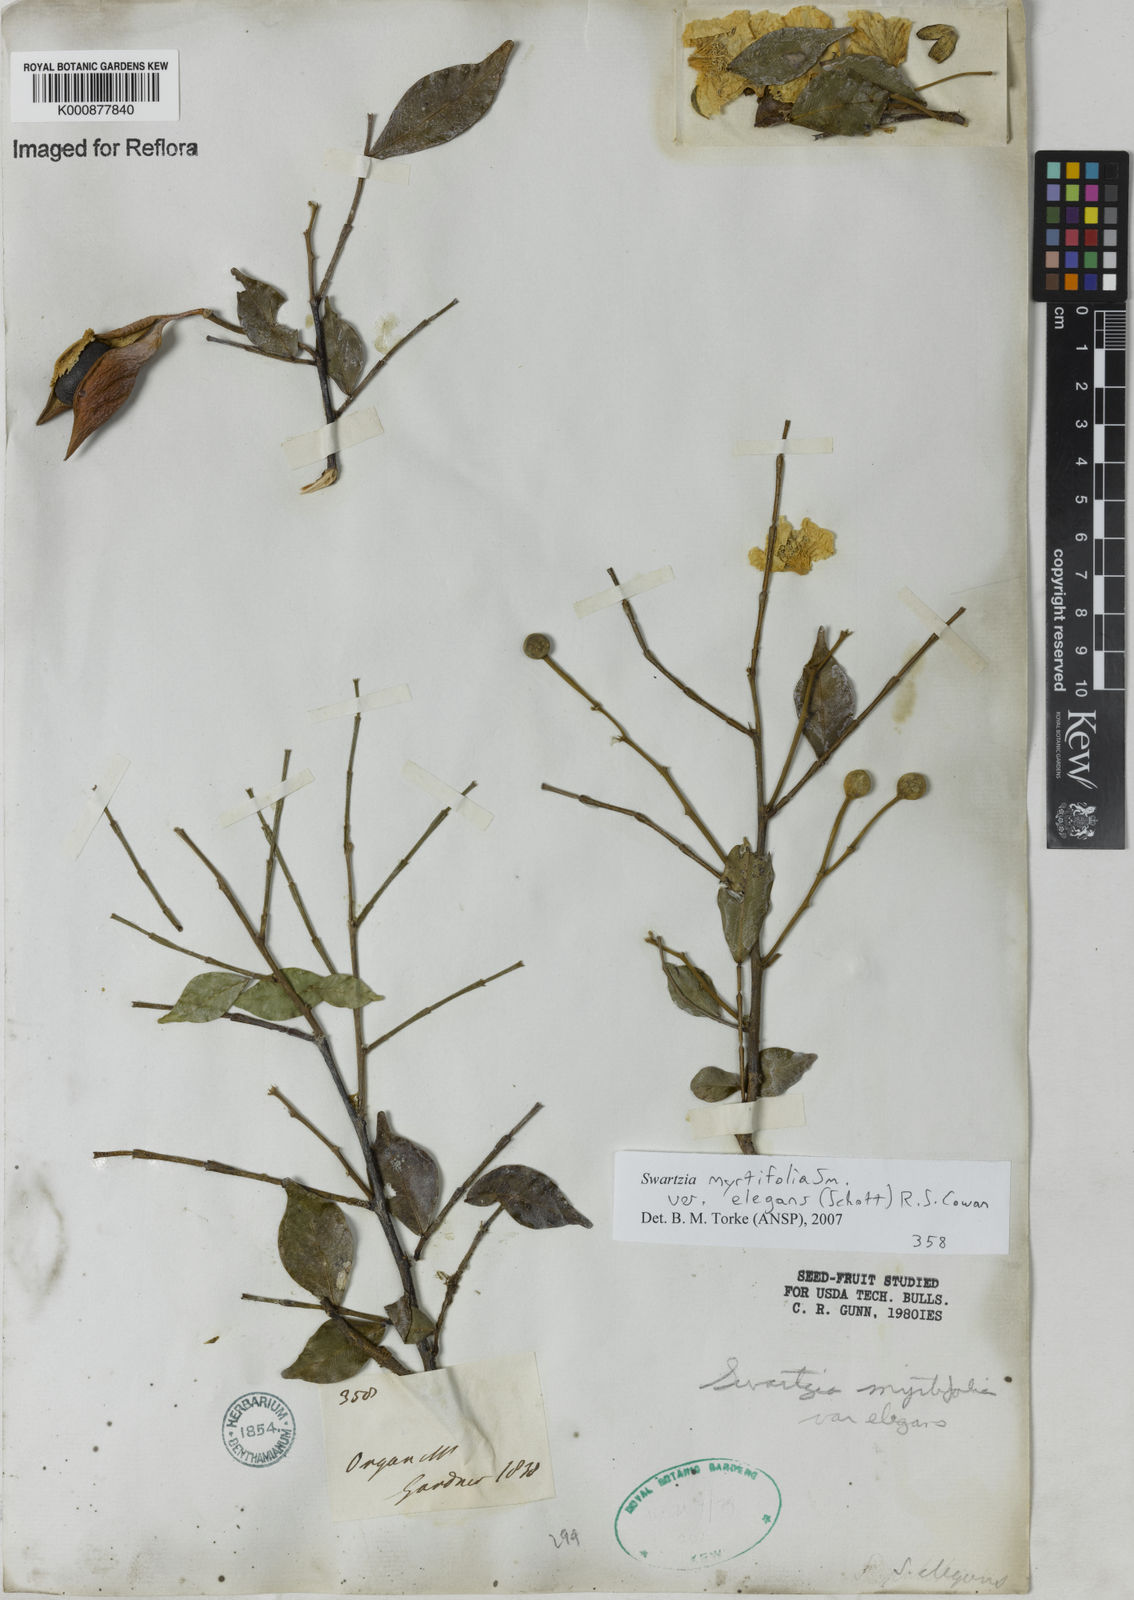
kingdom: Plantae
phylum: Tracheophyta
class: Magnoliopsida
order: Fabales
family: Fabaceae
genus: Swartzia
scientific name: Swartzia myrtifolia
